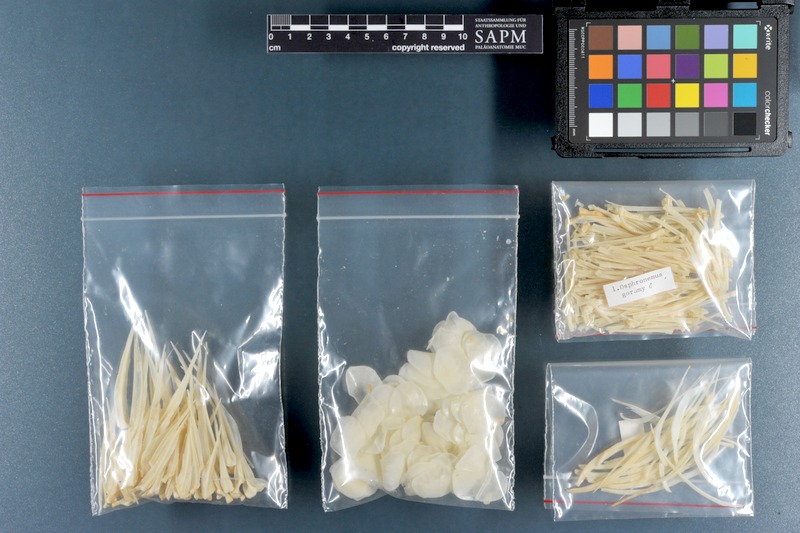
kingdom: Animalia
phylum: Chordata
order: Perciformes
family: Osphronemidae
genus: Osphronemus
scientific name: Osphronemus goramy
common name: Giant gourami
